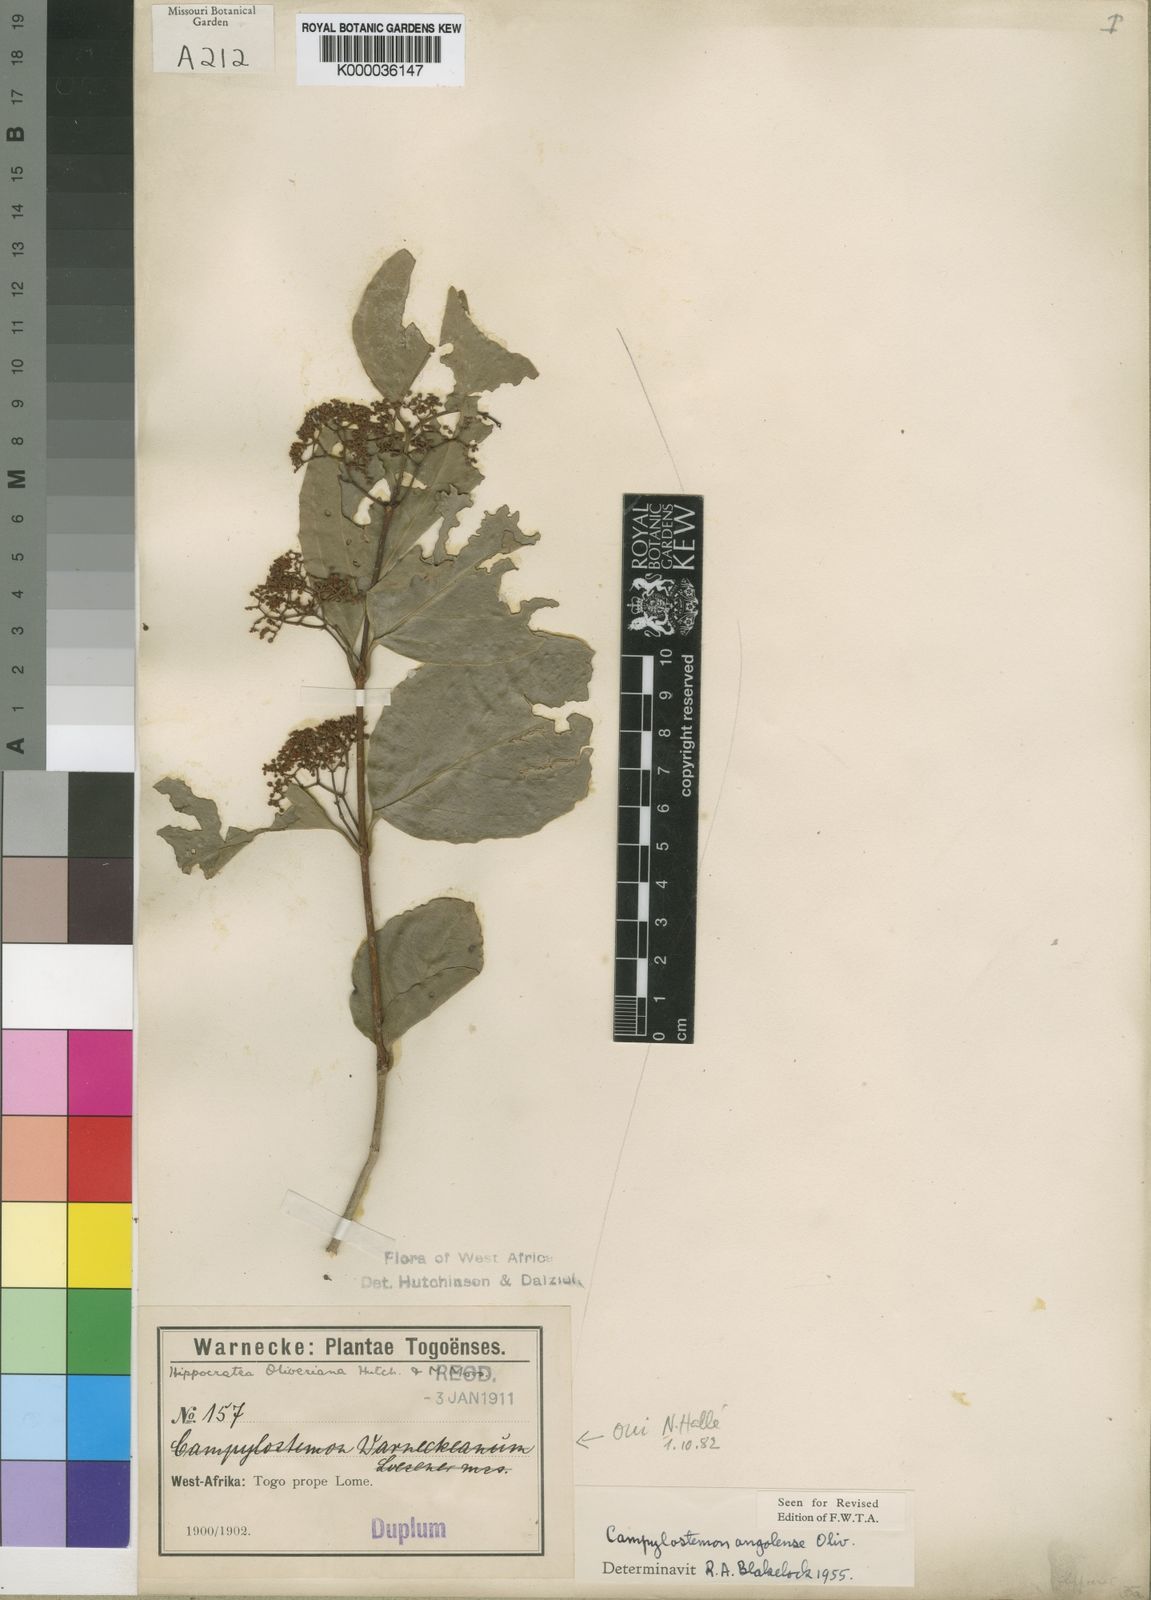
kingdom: Plantae
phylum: Tracheophyta
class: Magnoliopsida
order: Celastrales
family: Celastraceae
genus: Campylostemon
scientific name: Campylostemon warneckeanus
